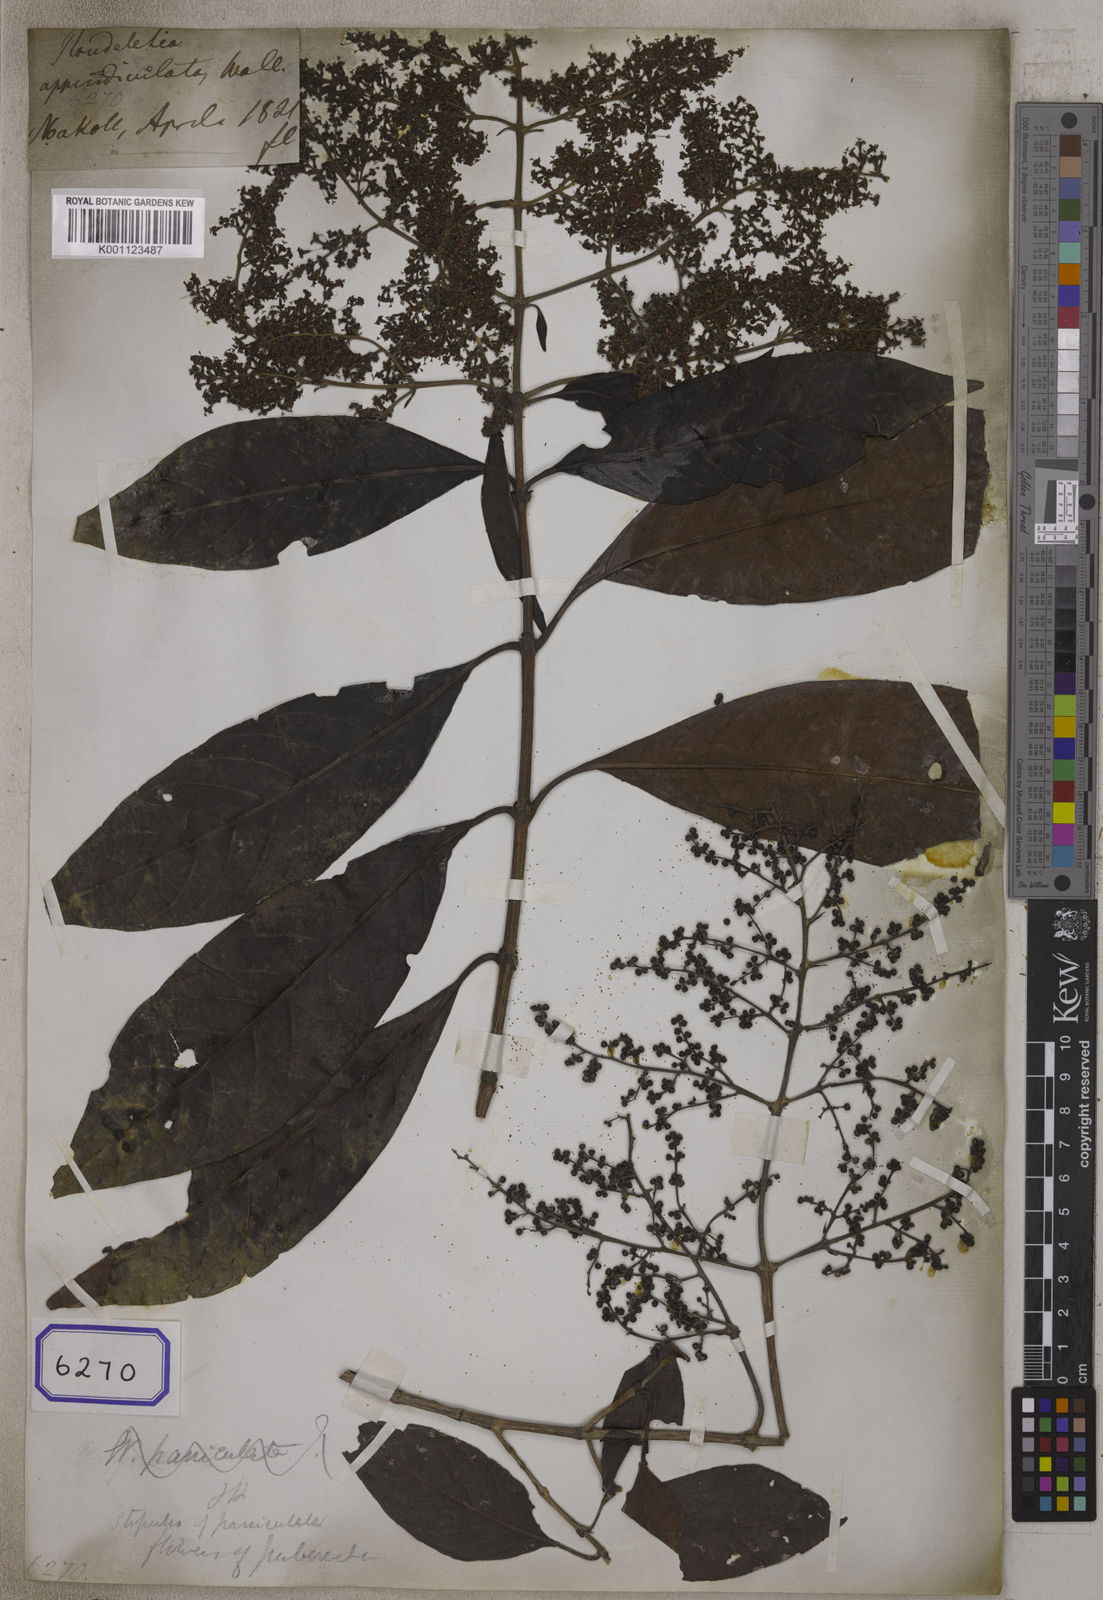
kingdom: Plantae
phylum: Tracheophyta
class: Magnoliopsida
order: Gentianales
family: Rubiaceae
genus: Wendlandia
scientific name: Wendlandia puberula
